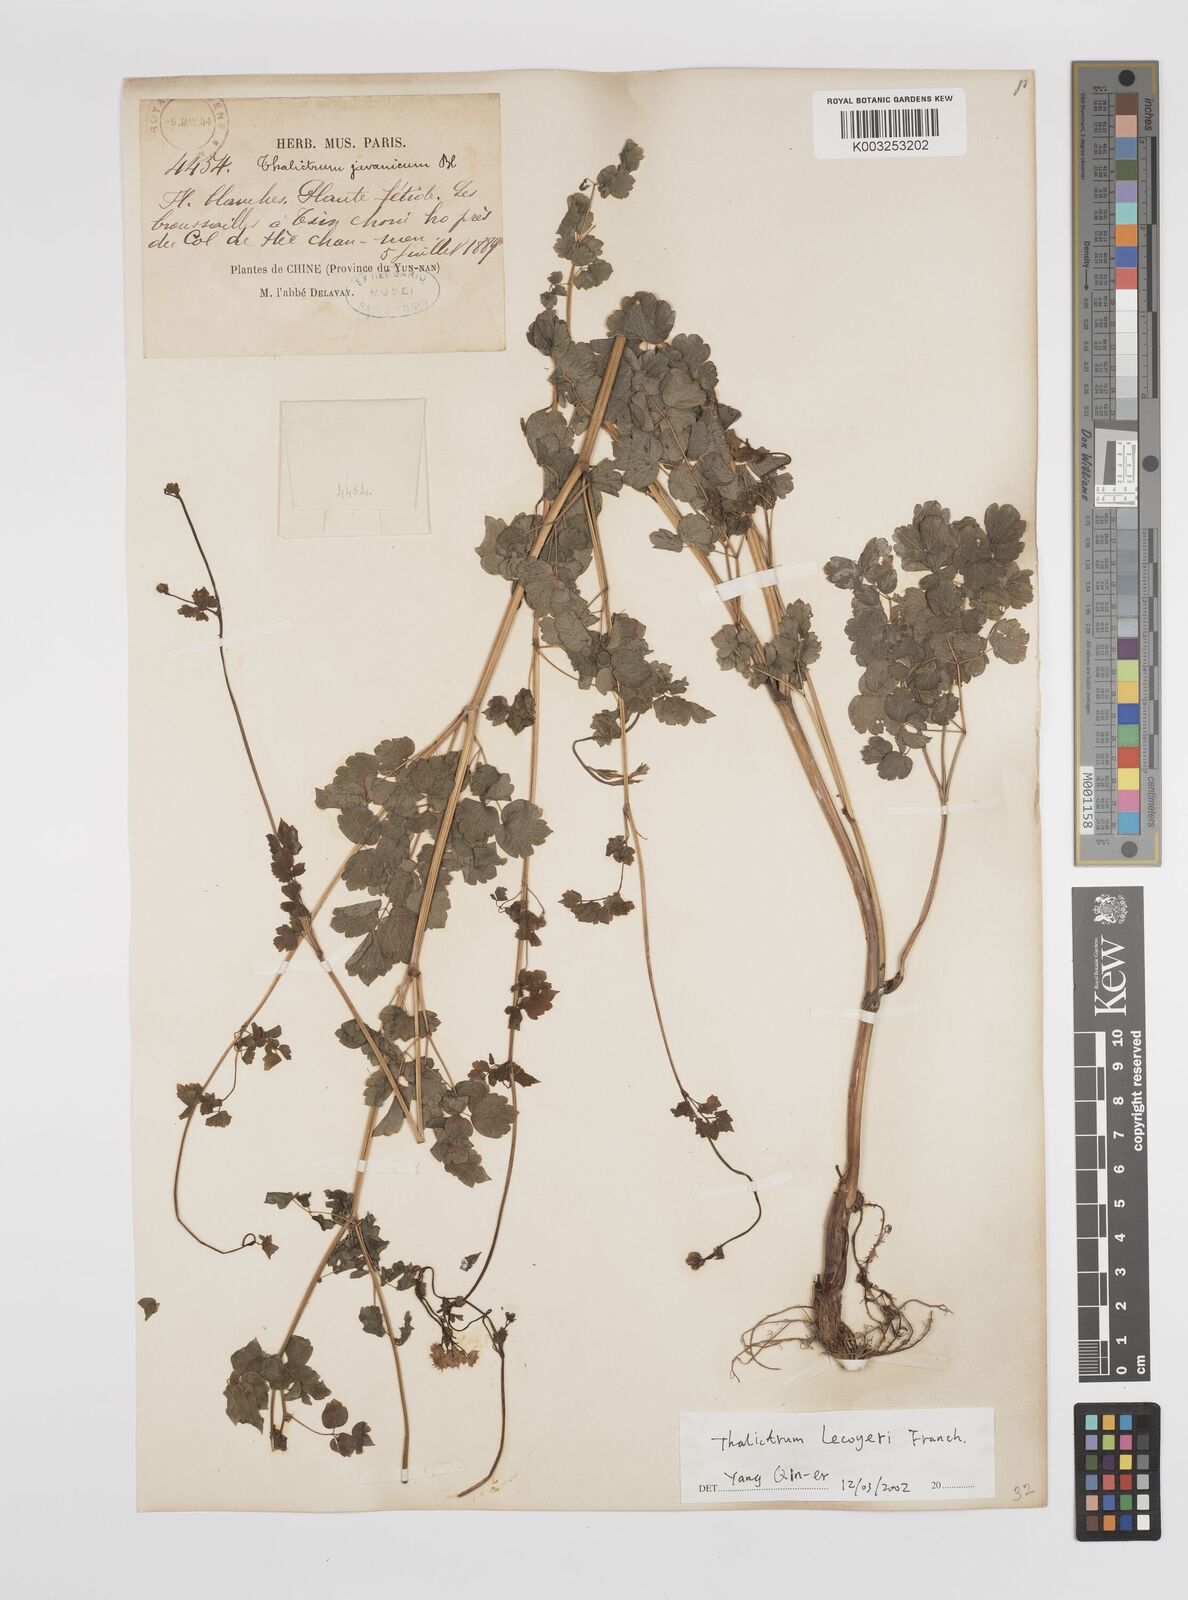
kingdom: Plantae
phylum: Tracheophyta
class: Magnoliopsida
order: Ranunculales
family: Ranunculaceae
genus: Thalictrum
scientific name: Thalictrum javanicum
